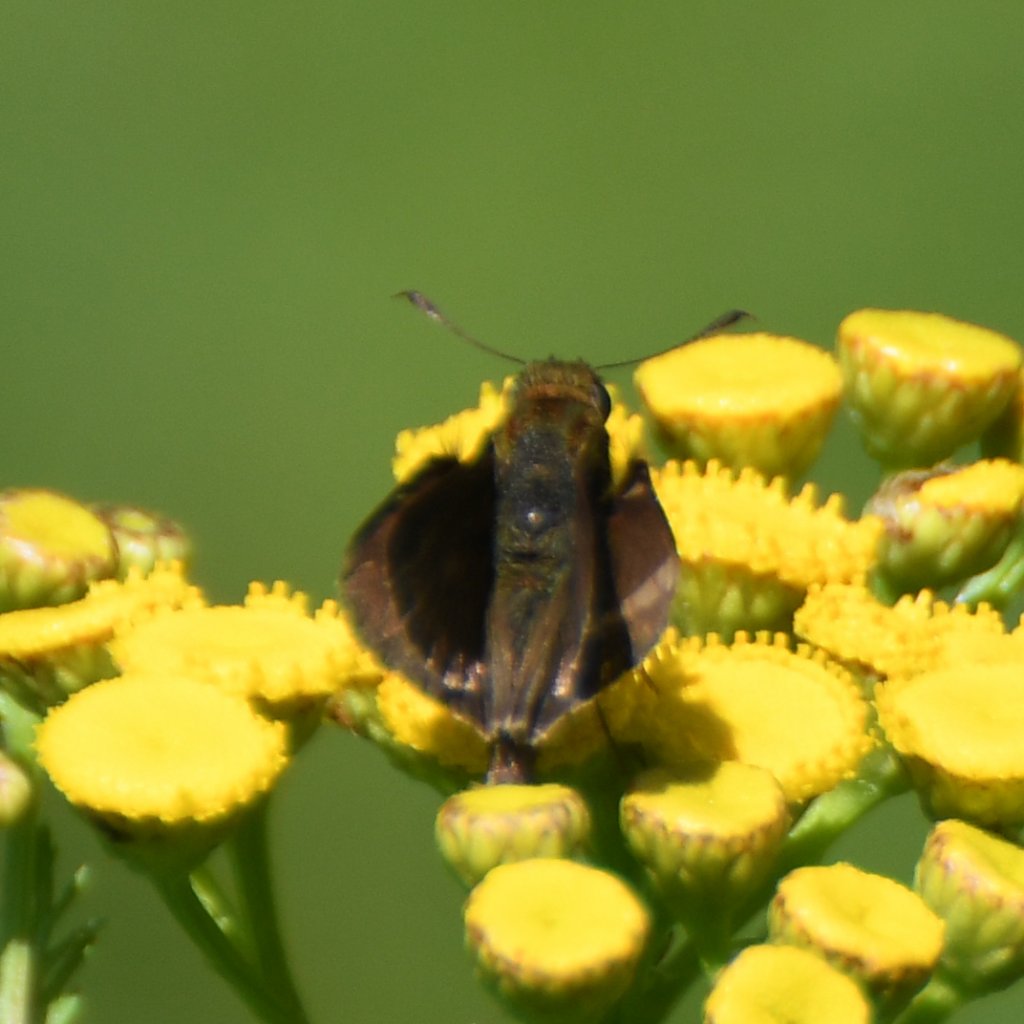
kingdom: Animalia
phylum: Arthropoda
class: Insecta
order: Lepidoptera
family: Hesperiidae
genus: Euphyes
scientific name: Euphyes vestris
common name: Dun Skipper
